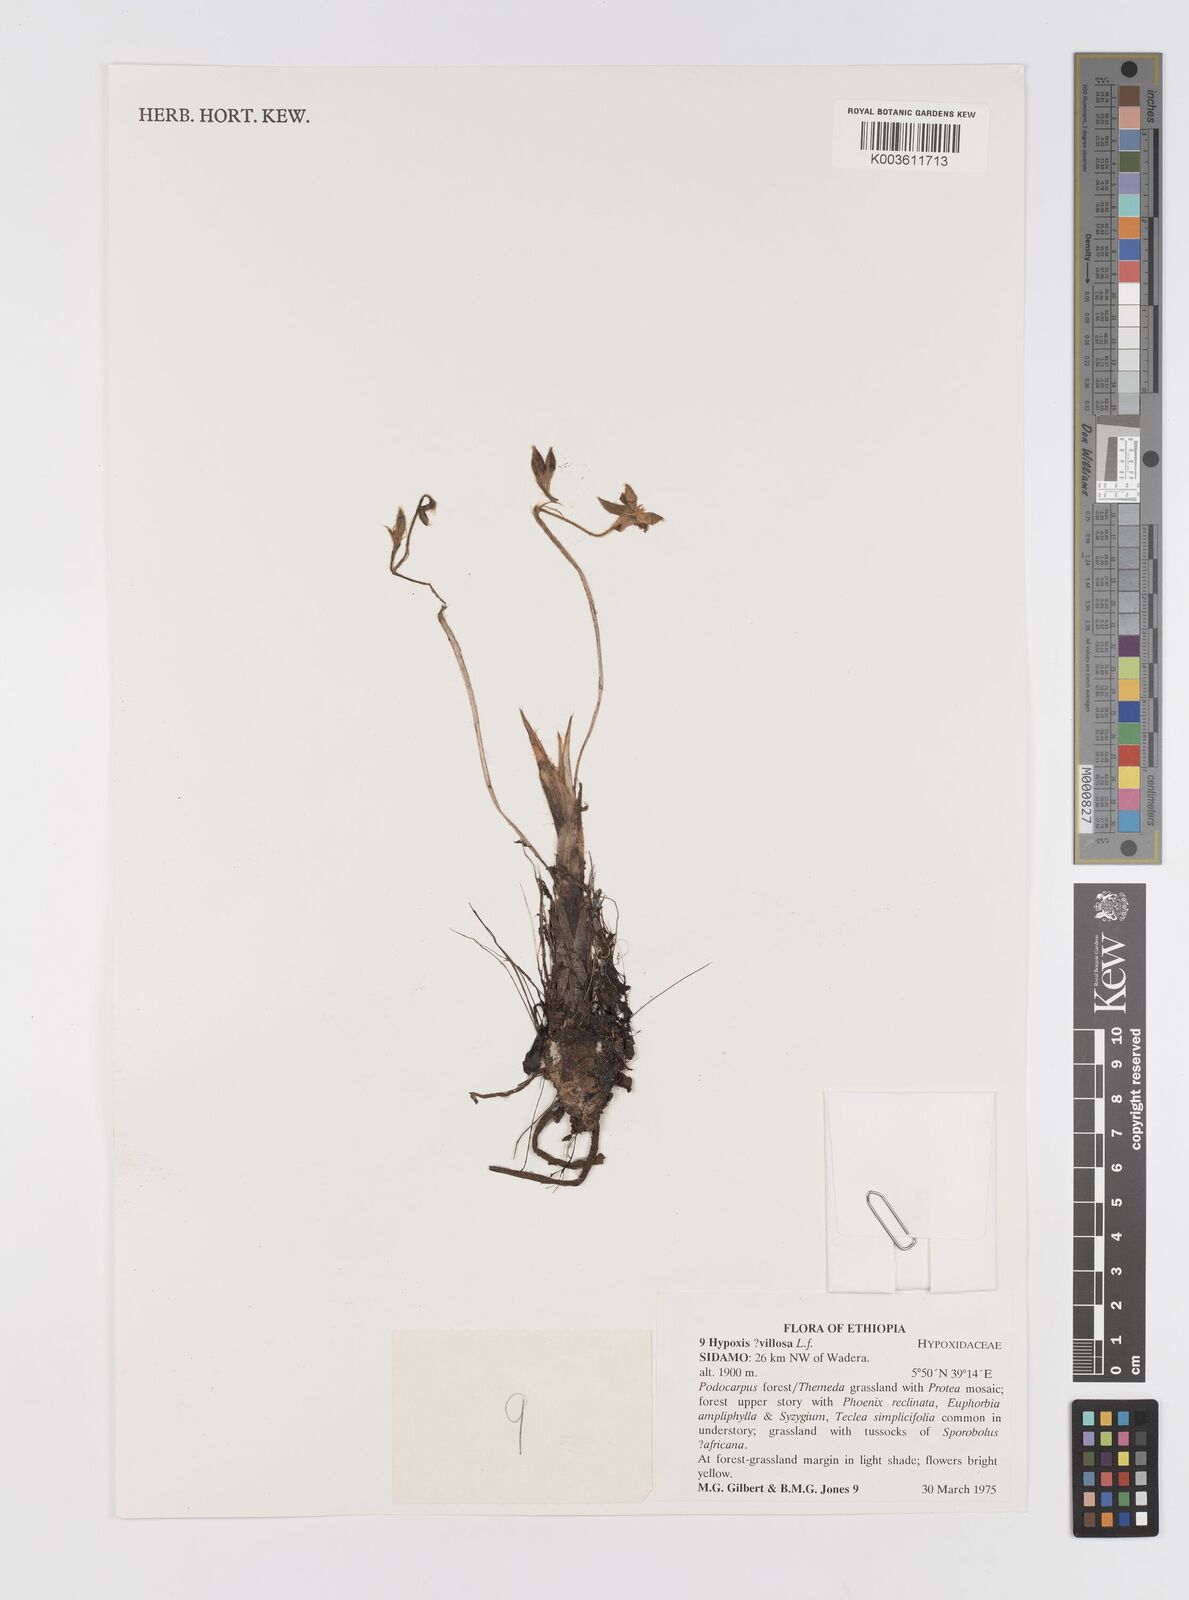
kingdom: Plantae
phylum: Tracheophyta
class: Liliopsida
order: Asparagales
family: Hypoxidaceae
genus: Hypoxis
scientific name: Hypoxis villosa
